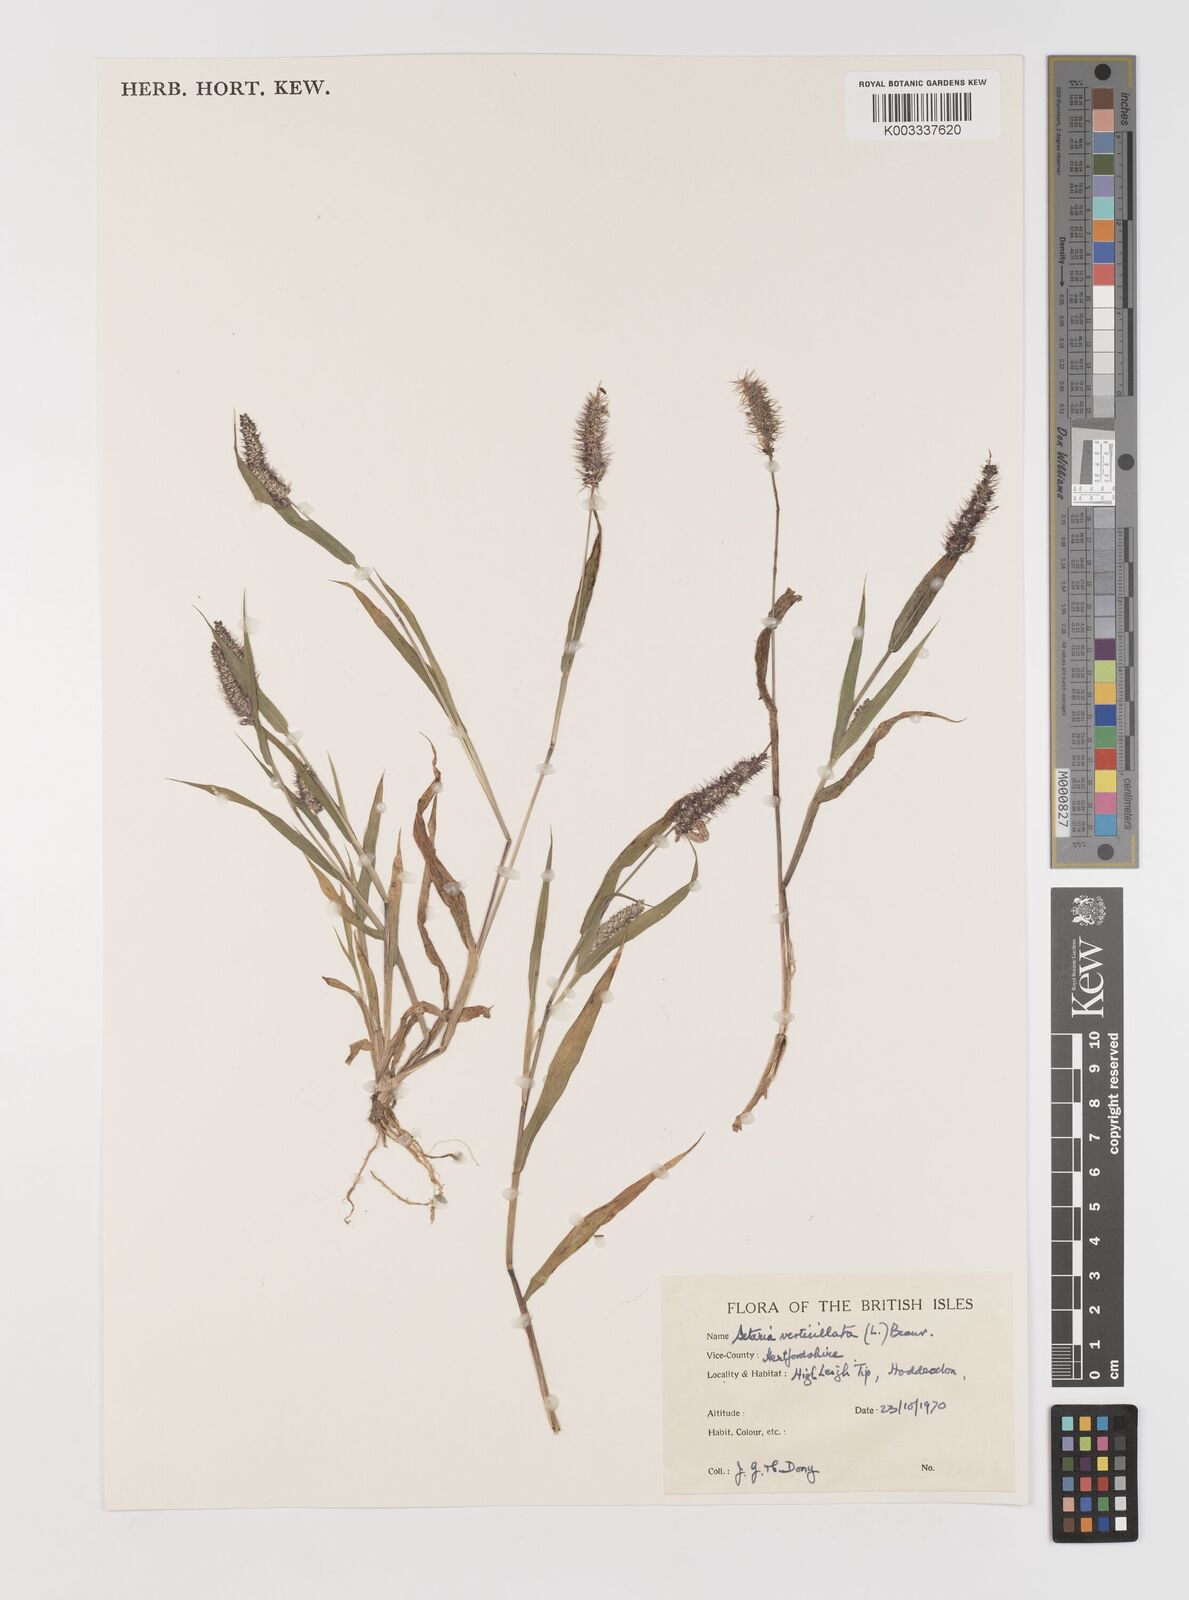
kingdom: Plantae
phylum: Tracheophyta
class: Liliopsida
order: Poales
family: Poaceae
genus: Setaria
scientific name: Setaria verticillata
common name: Hooked bristlegrass
